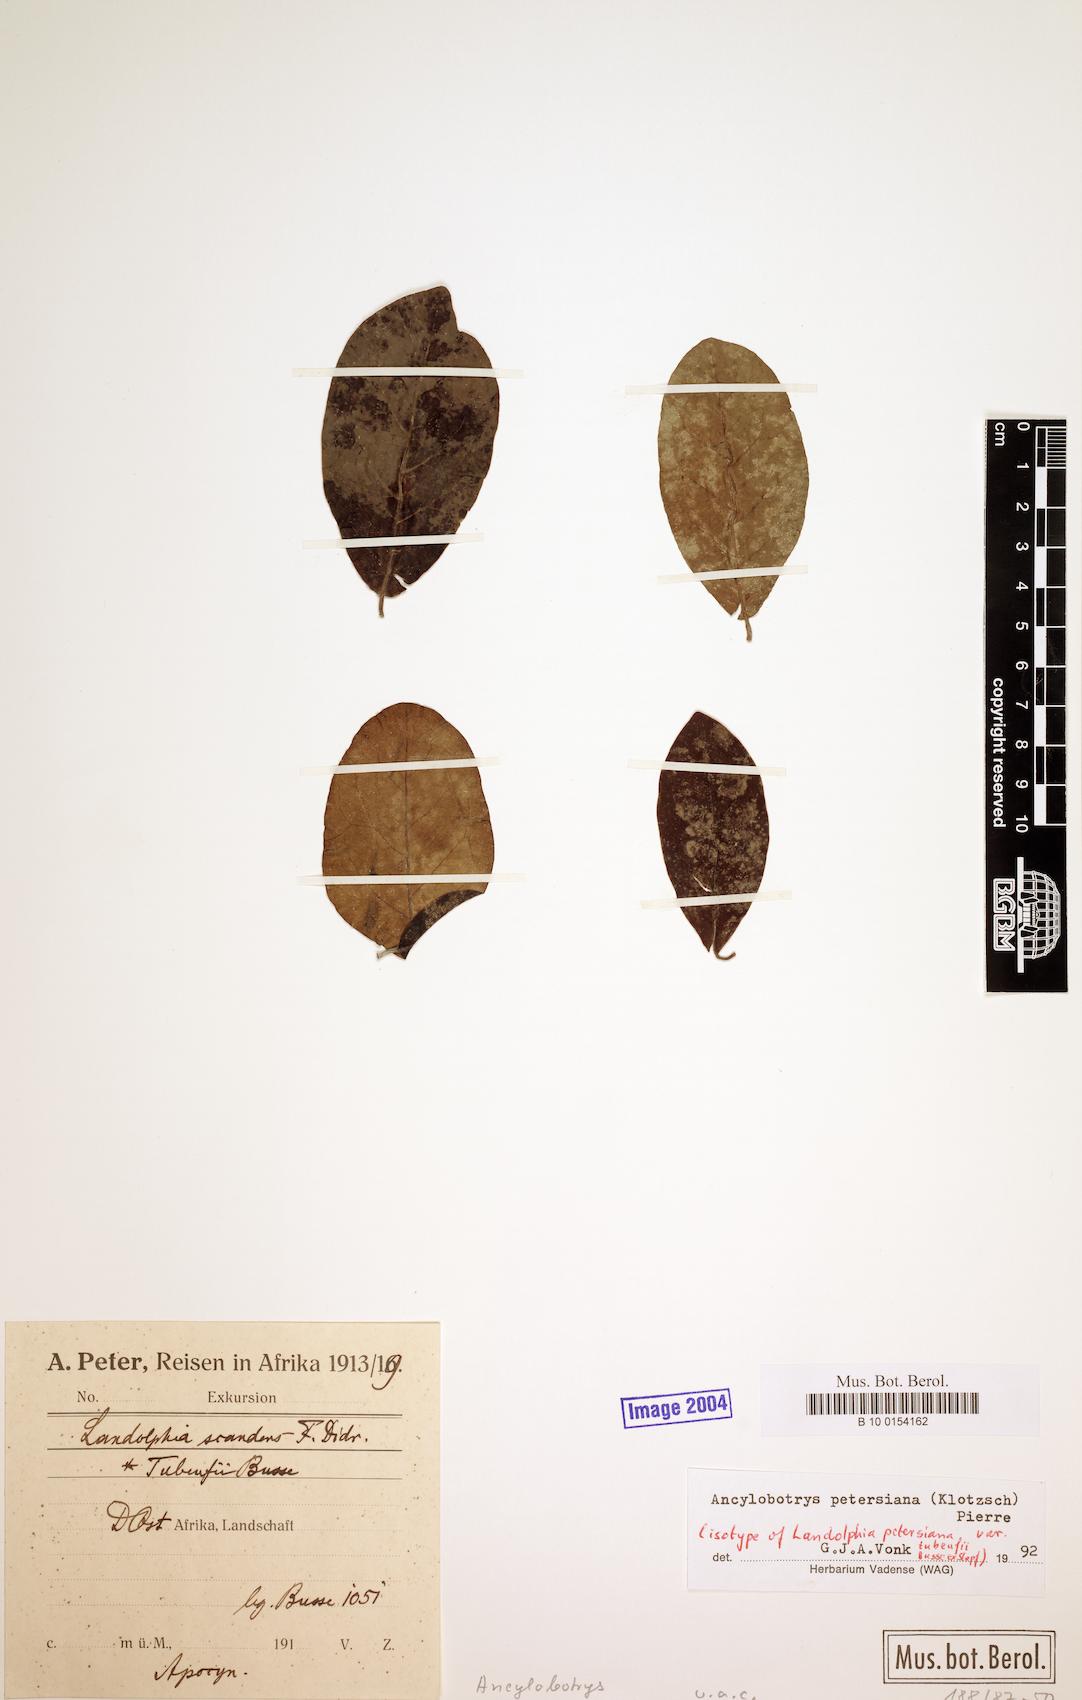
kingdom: Plantae
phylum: Tracheophyta
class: Magnoliopsida
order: Gentianales
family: Apocynaceae
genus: Ancylobothrys
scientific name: Ancylobothrys petersiana
